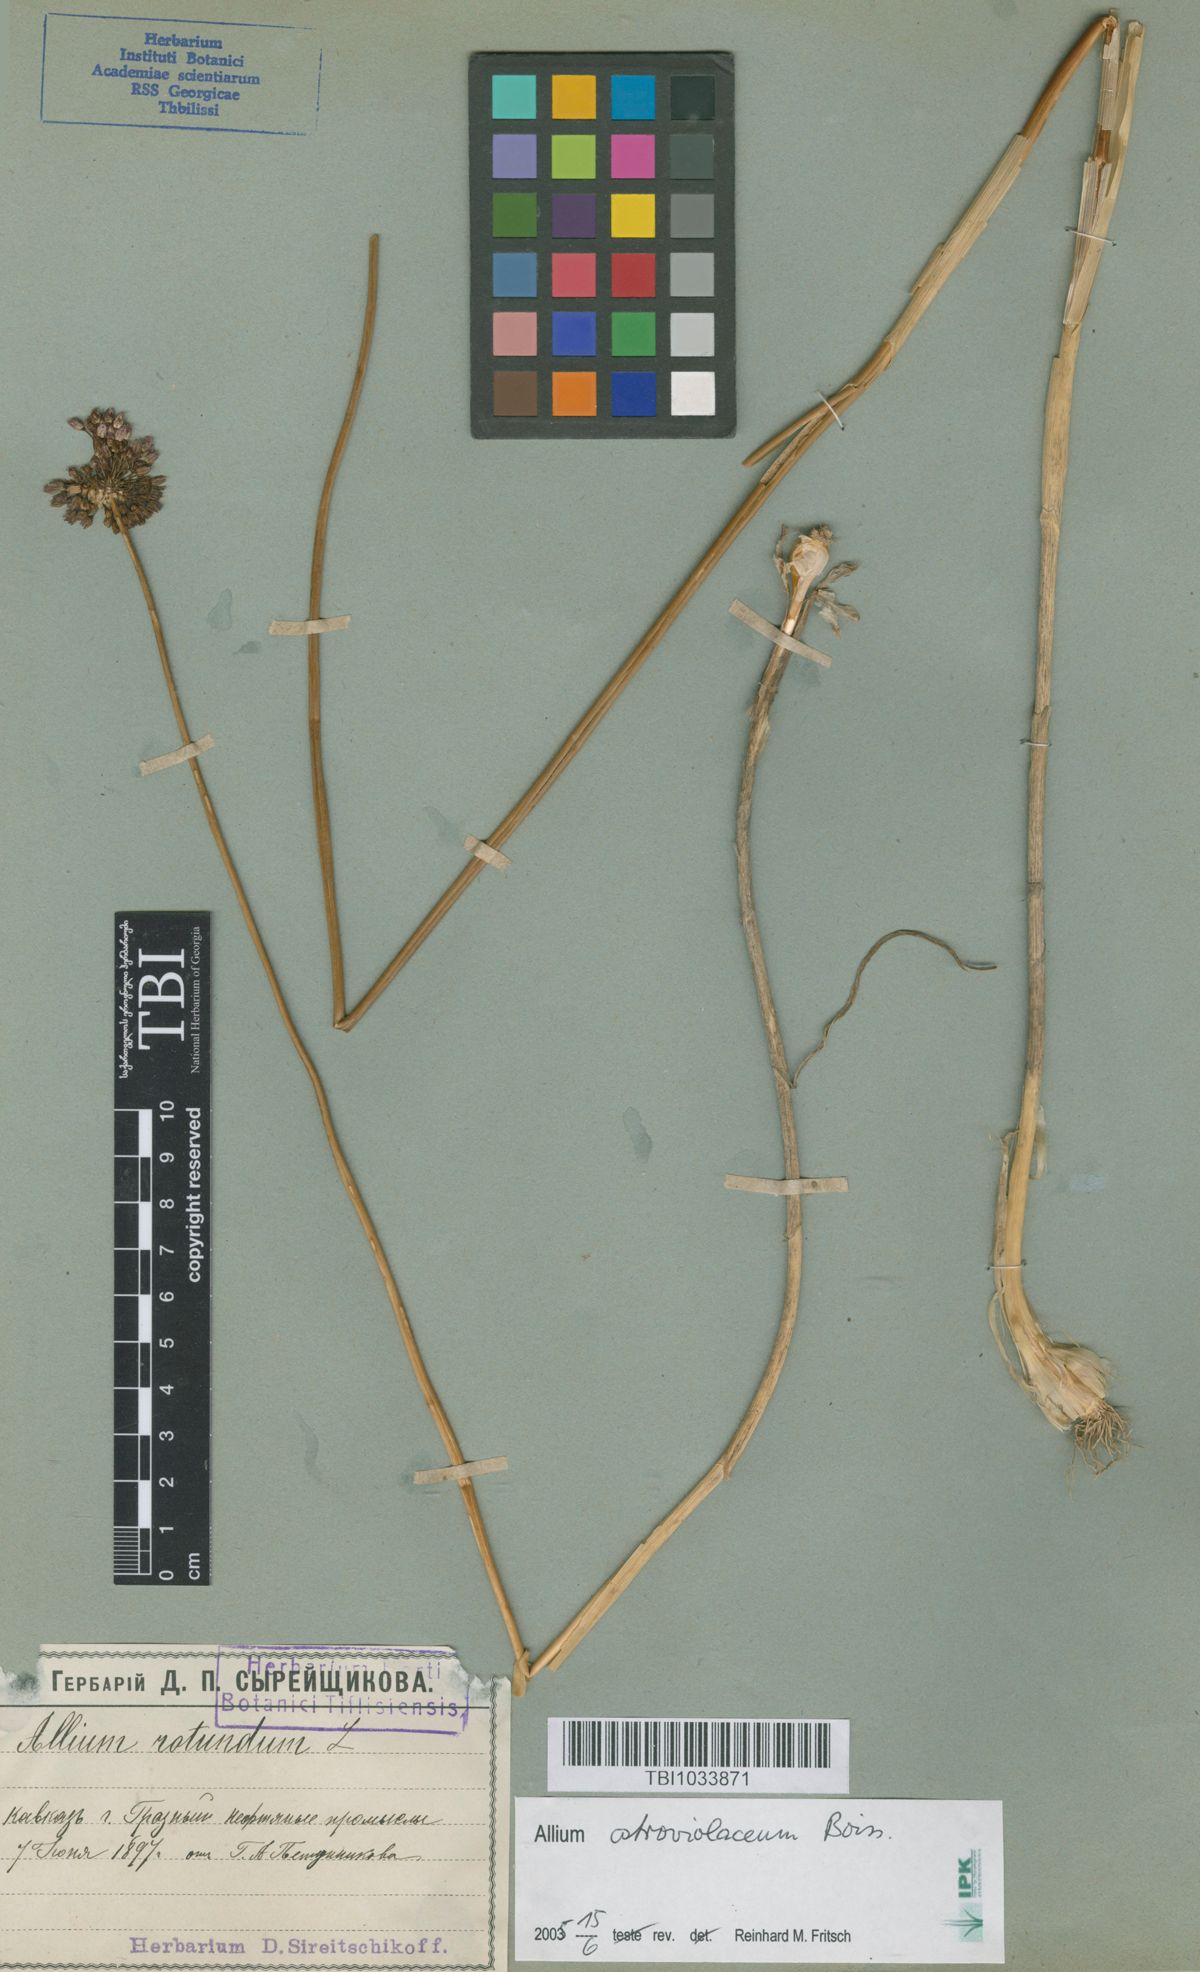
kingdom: Plantae
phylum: Tracheophyta
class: Liliopsida
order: Asparagales
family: Amaryllidaceae
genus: Allium
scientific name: Allium rotundum
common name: Sand leek
